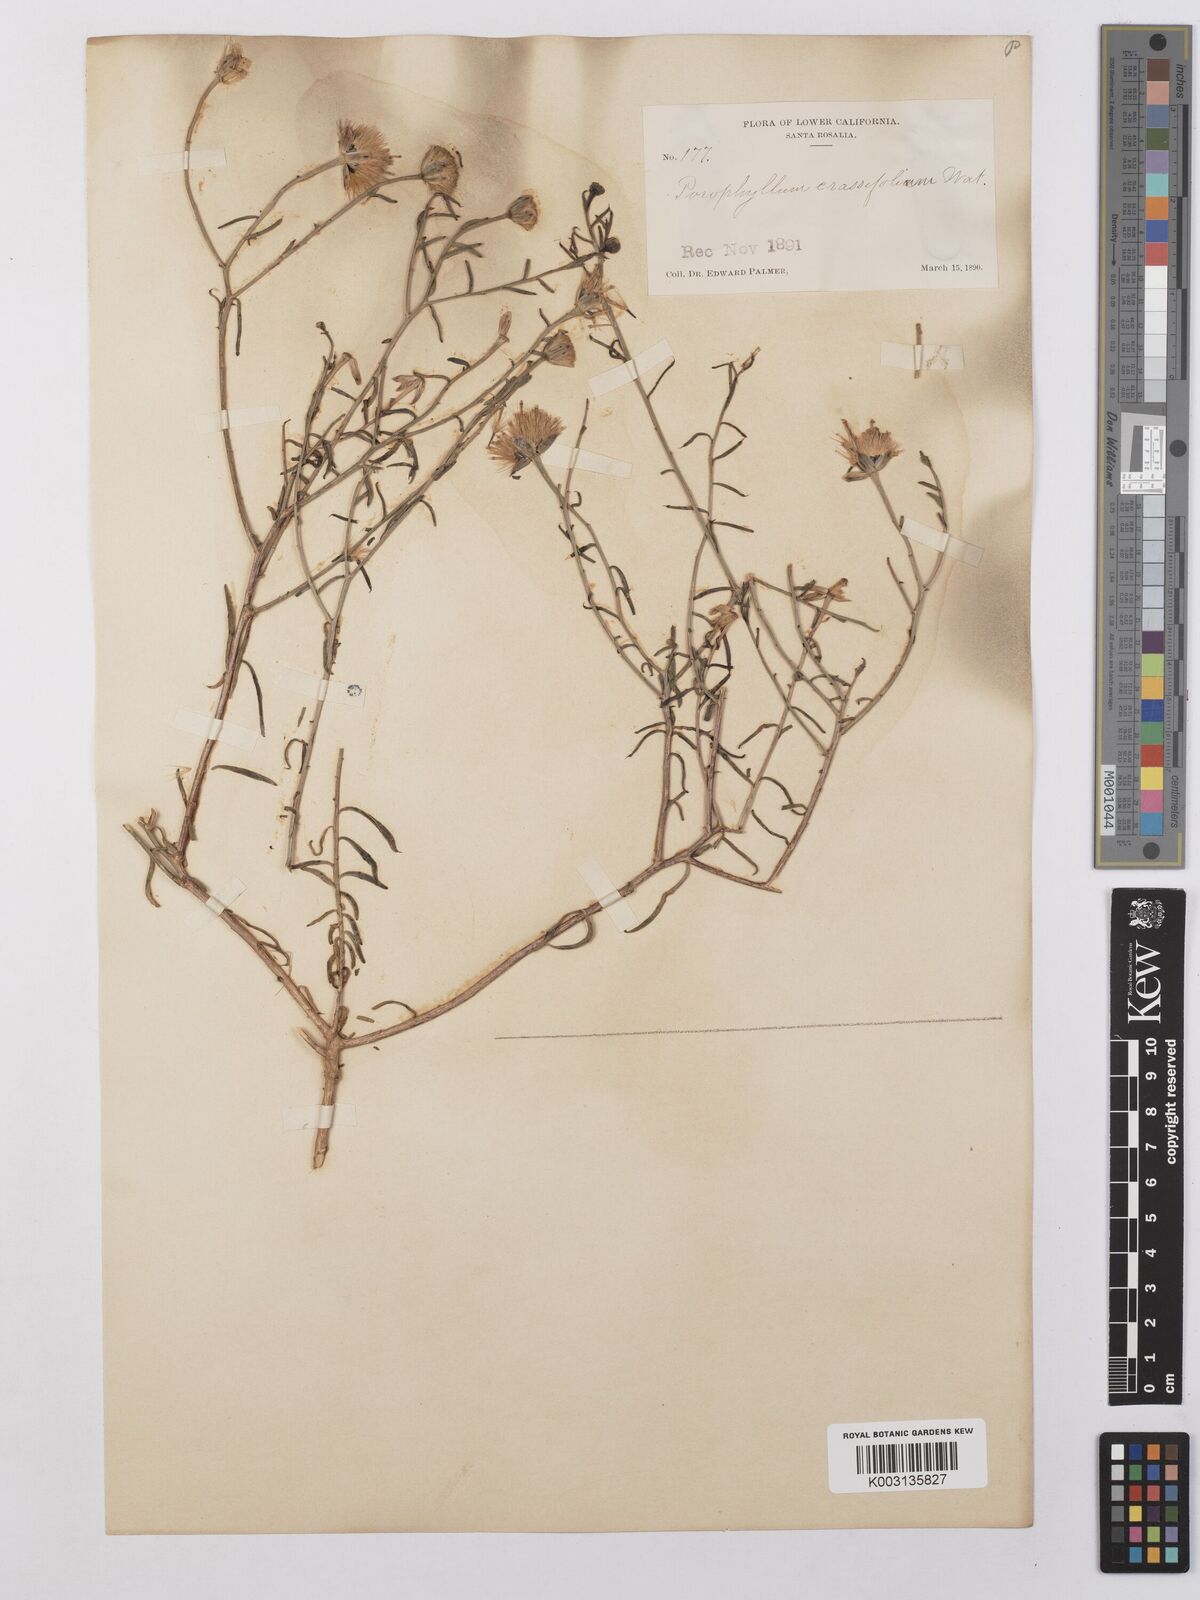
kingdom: Plantae
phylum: Tracheophyta
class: Magnoliopsida
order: Asterales
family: Asteraceae
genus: Bajacalia
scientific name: Bajacalia crassifolia
